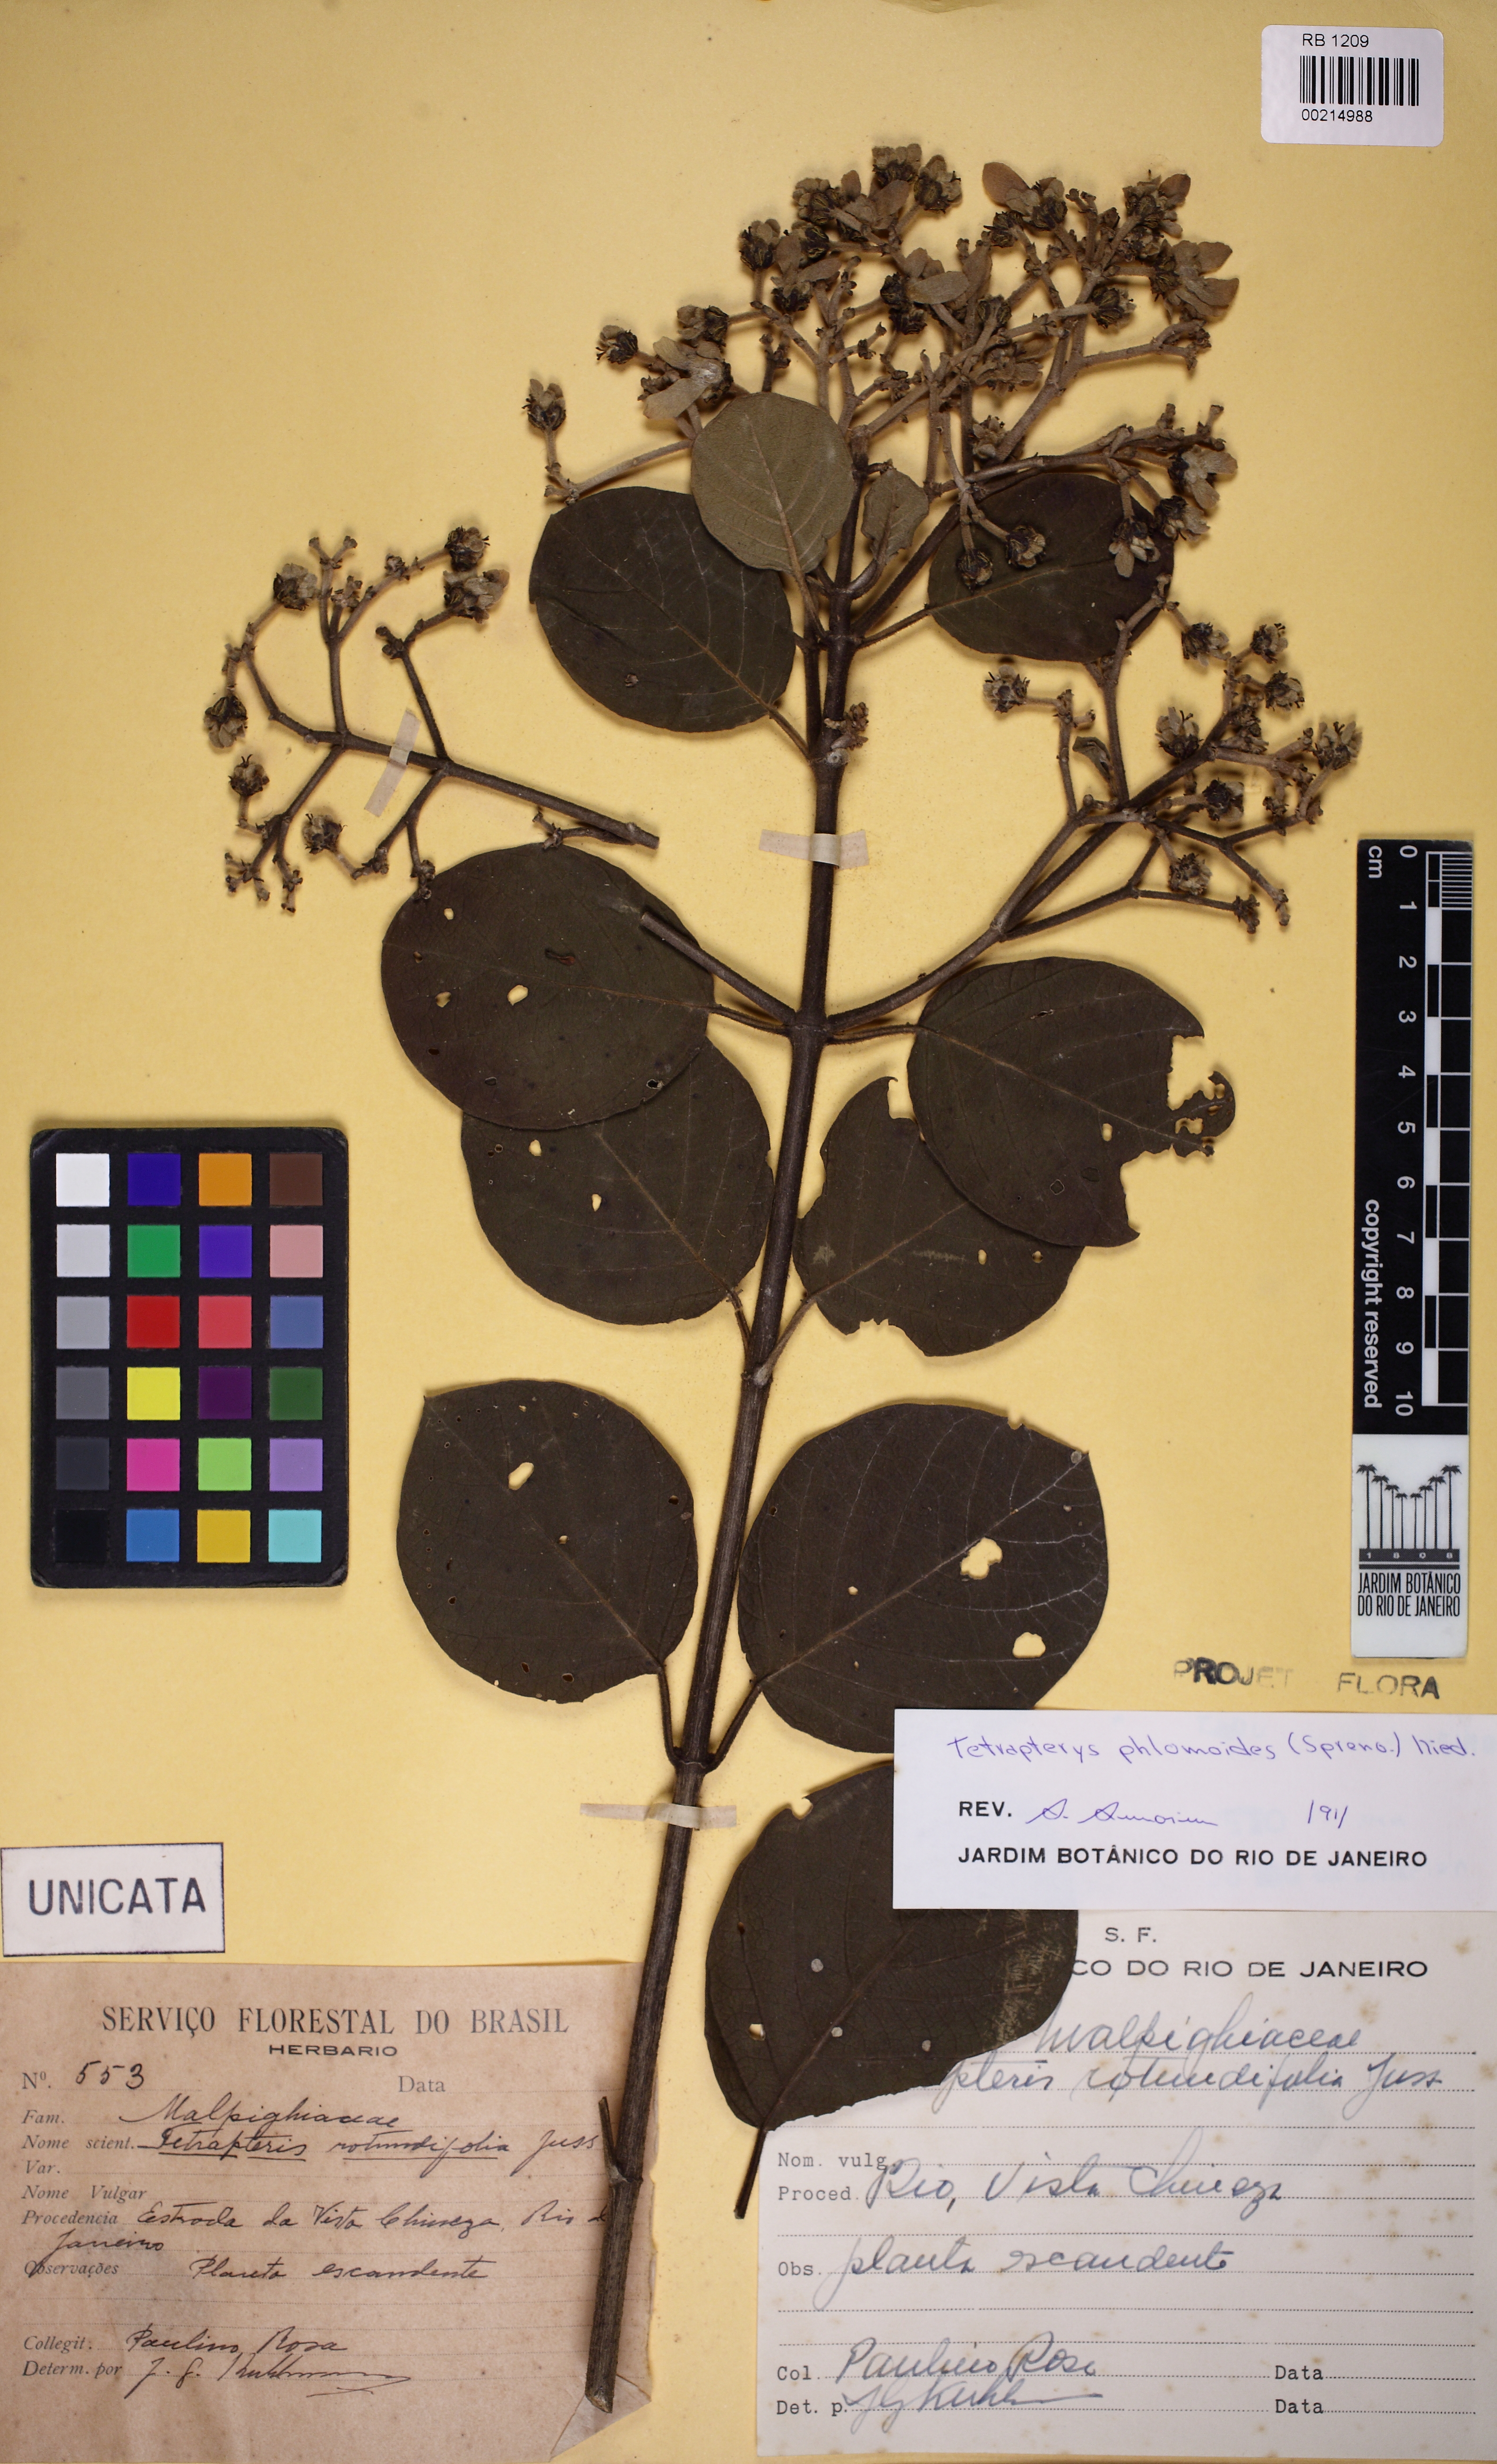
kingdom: Plantae
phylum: Tracheophyta
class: Magnoliopsida
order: Malpighiales
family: Malpighiaceae
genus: Tetrapterys
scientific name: Tetrapterys phlomoides
